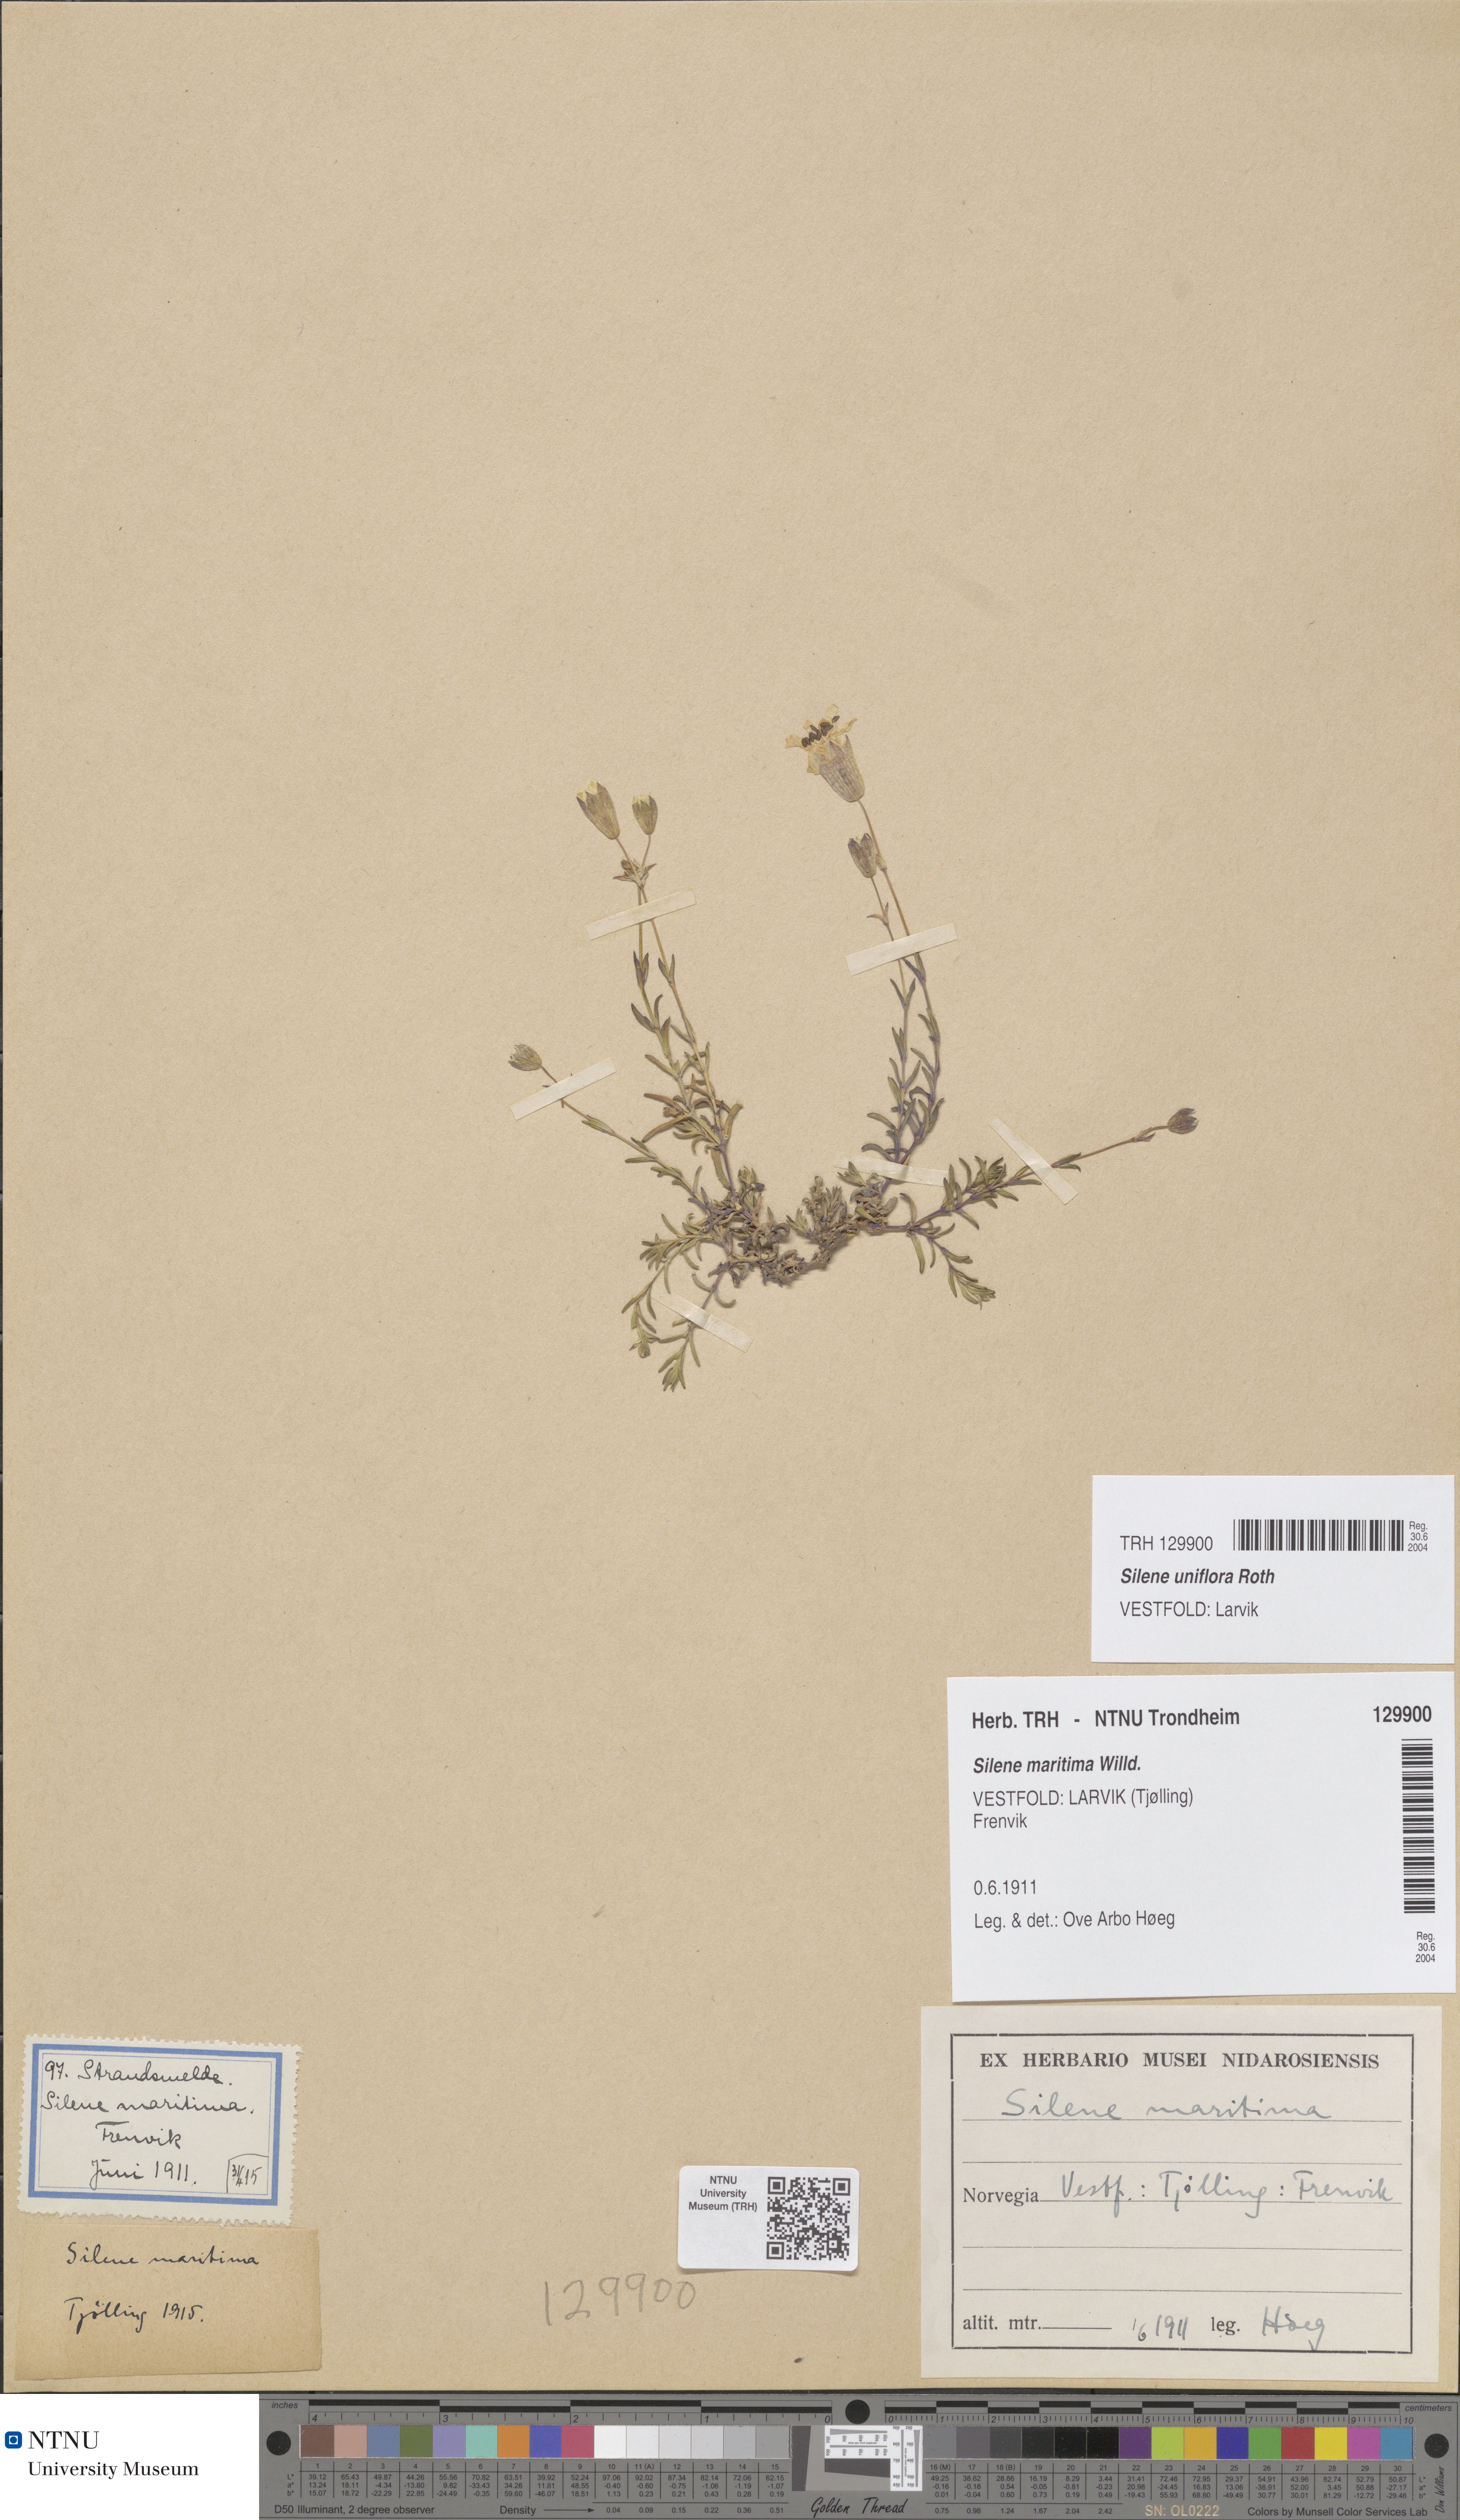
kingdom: Plantae
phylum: Tracheophyta
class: Magnoliopsida
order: Caryophyllales
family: Caryophyllaceae
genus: Silene
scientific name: Silene uniflora
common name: Sea campion
